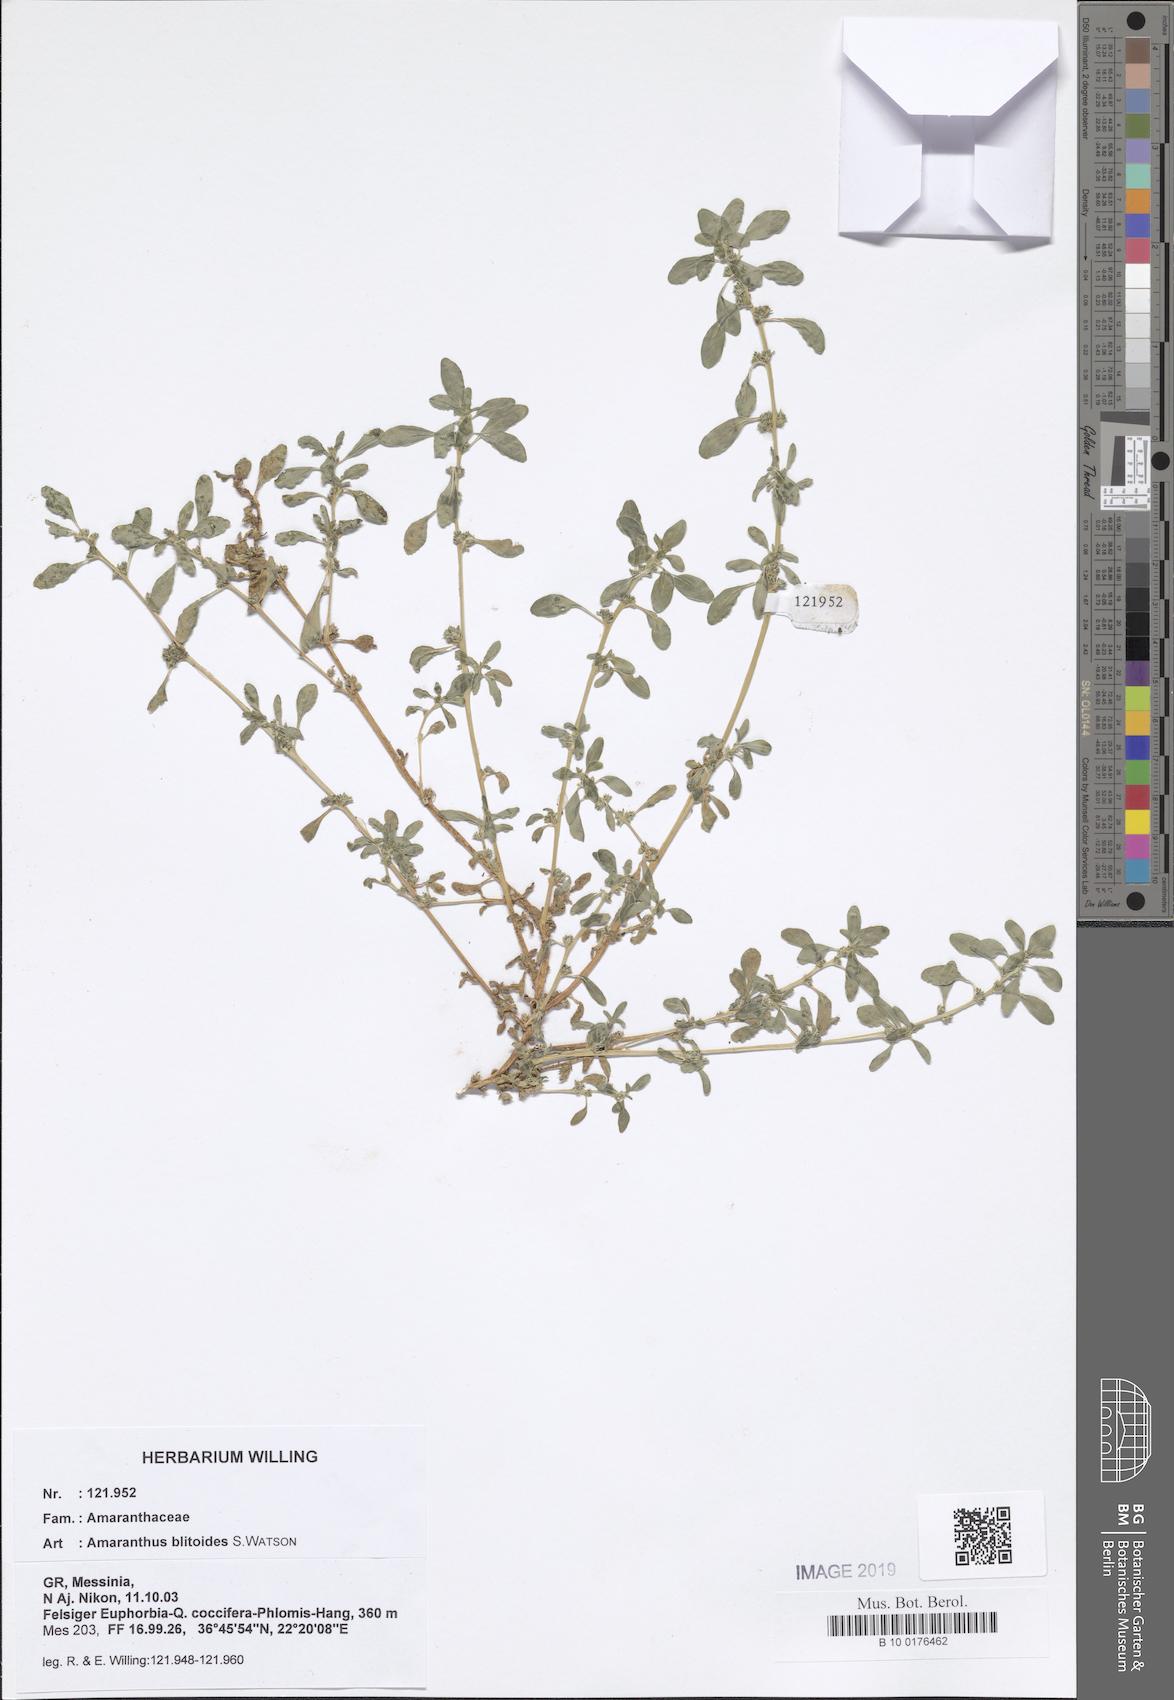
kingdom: Plantae
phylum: Tracheophyta
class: Magnoliopsida
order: Caryophyllales
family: Amaranthaceae
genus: Amaranthus
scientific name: Amaranthus blitoides
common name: Prostrate pigweed
